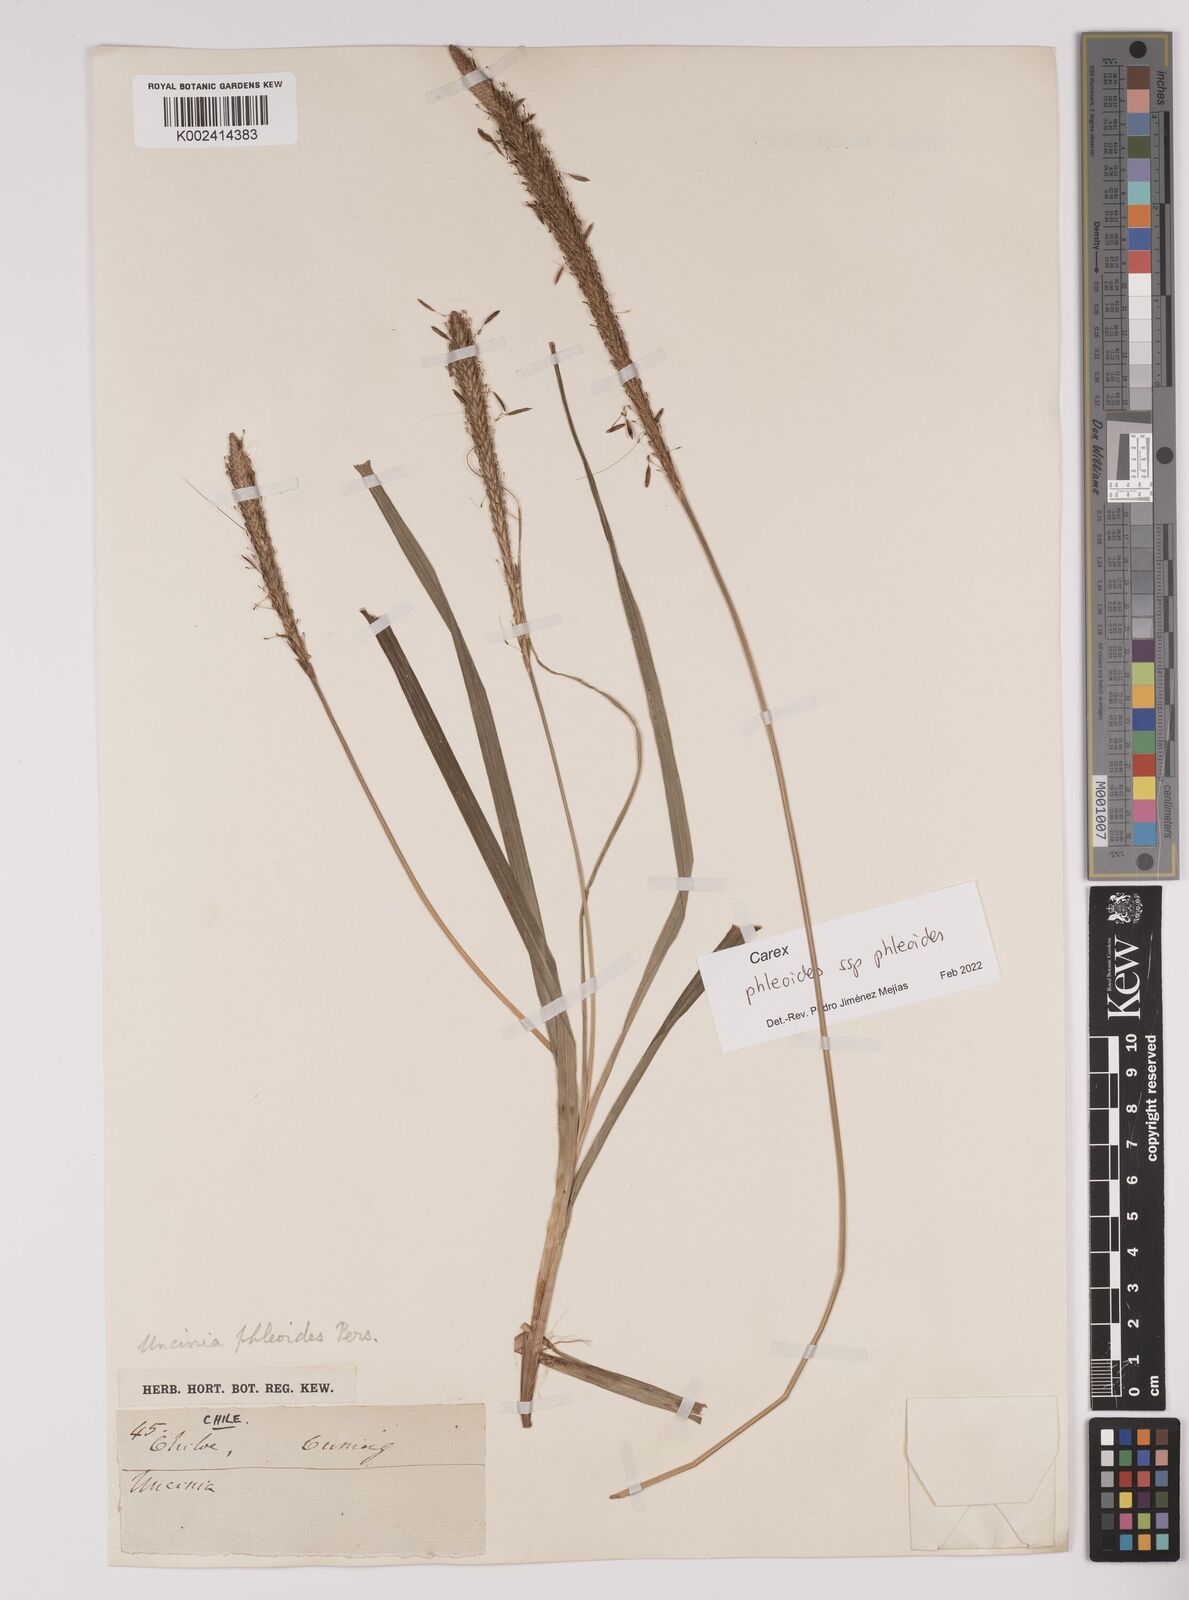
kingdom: Plantae
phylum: Tracheophyta
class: Liliopsida
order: Poales
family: Cyperaceae
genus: Carex
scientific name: Carex phleoides
